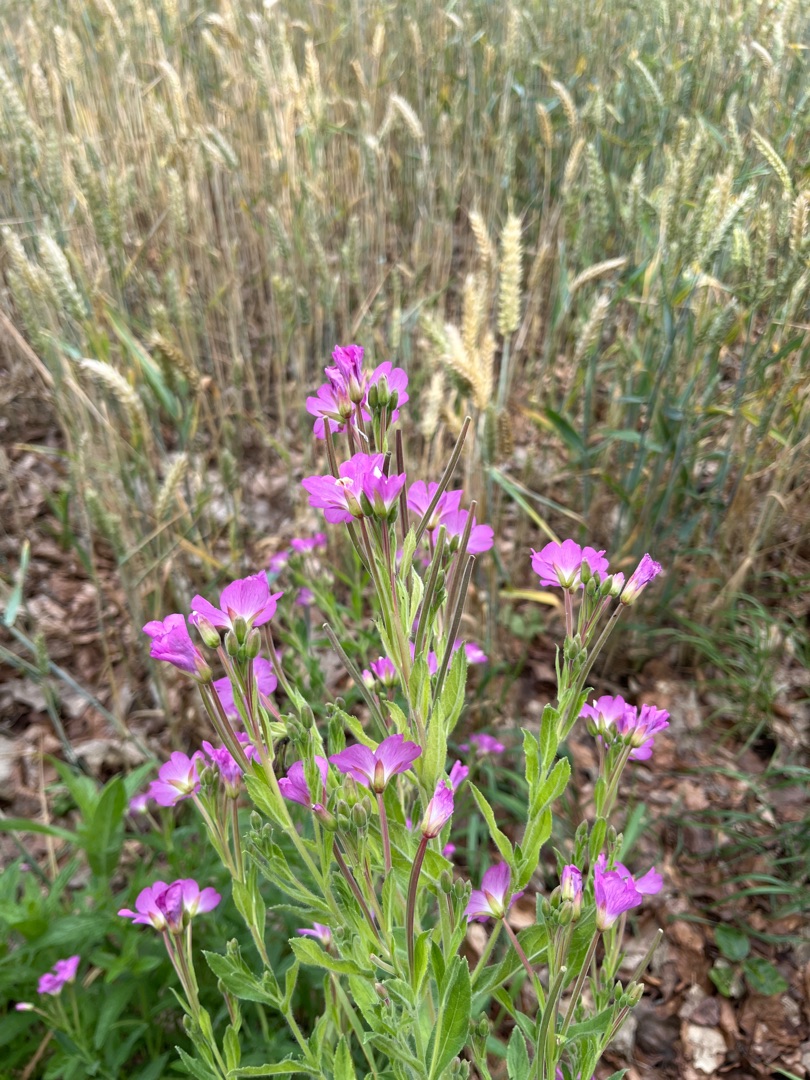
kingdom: Plantae
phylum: Tracheophyta
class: Magnoliopsida
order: Myrtales
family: Onagraceae
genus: Epilobium
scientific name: Epilobium hirsutum
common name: Lådden dueurt
